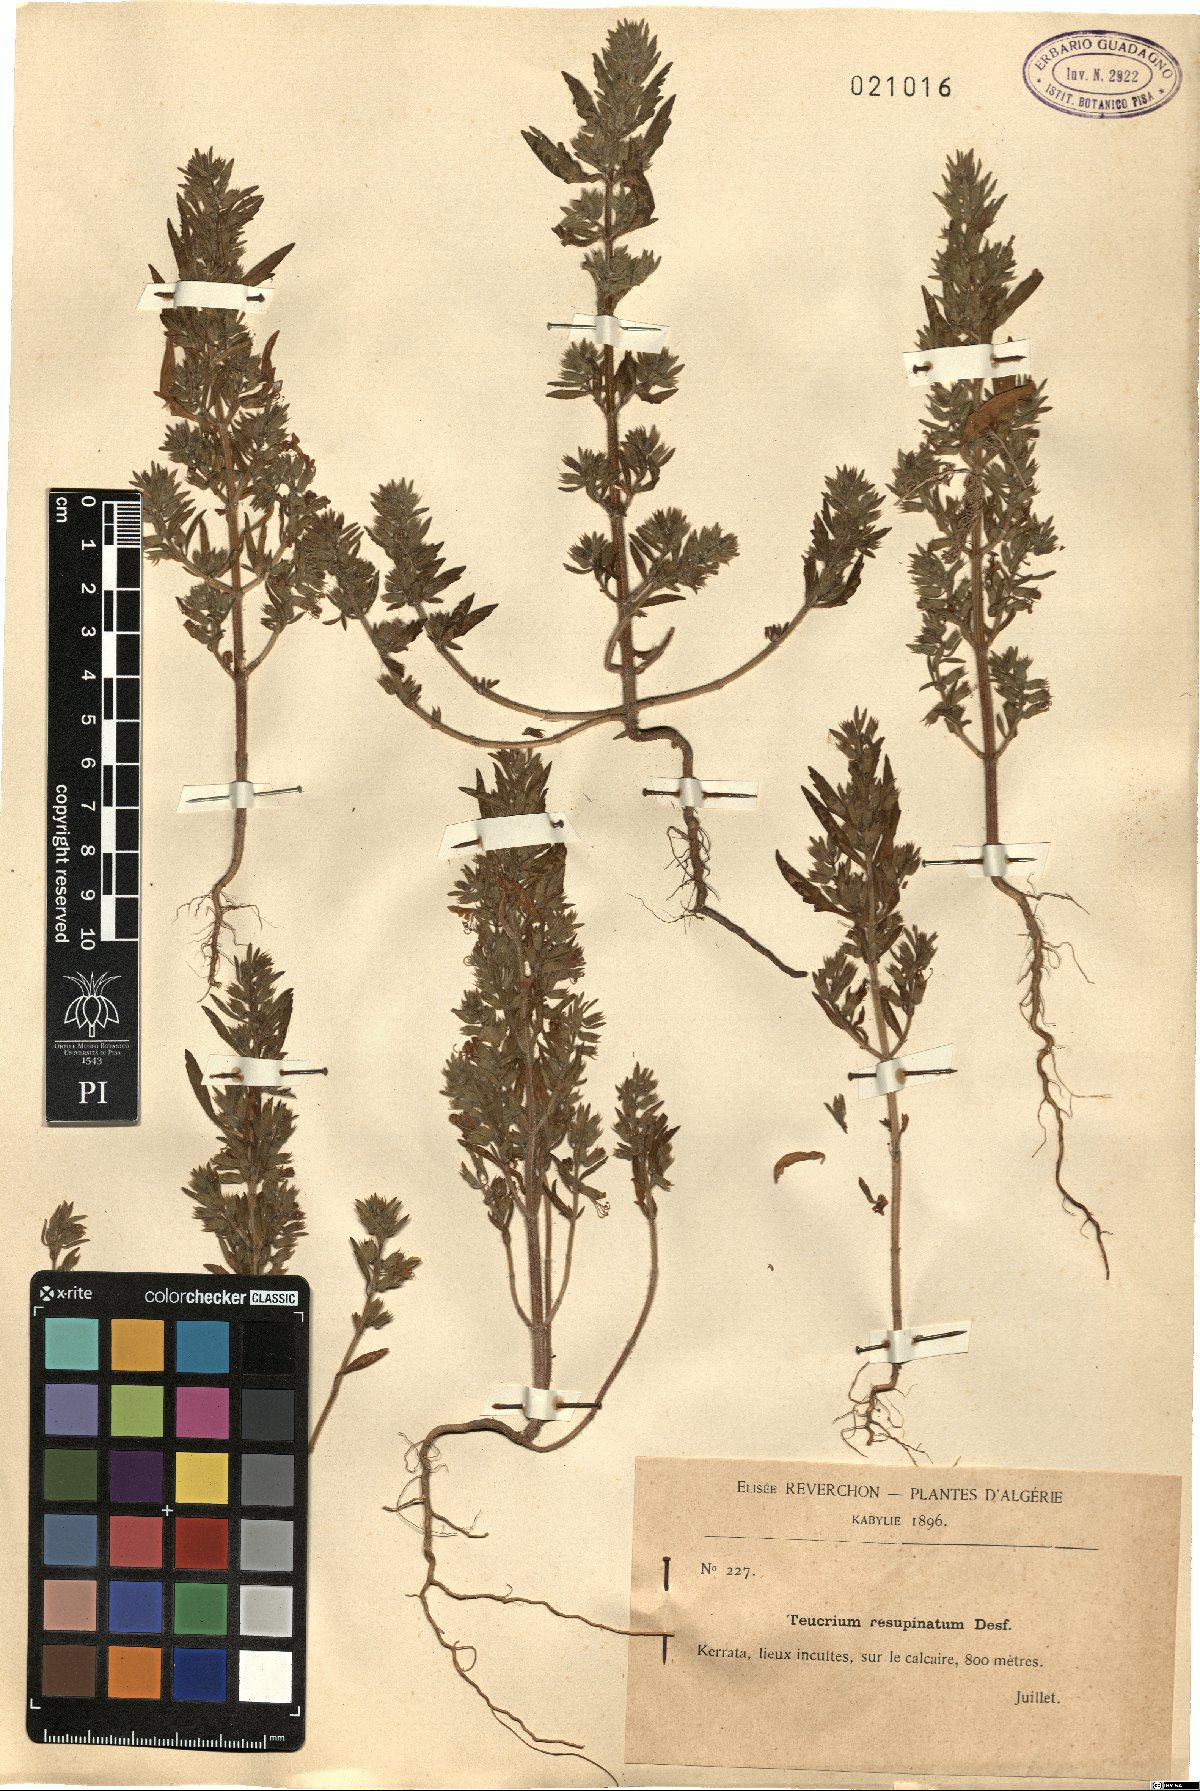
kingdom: Plantae
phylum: Tracheophyta
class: Magnoliopsida
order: Lamiales
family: Lamiaceae
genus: Teucrium
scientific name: Teucrium resupinatum
